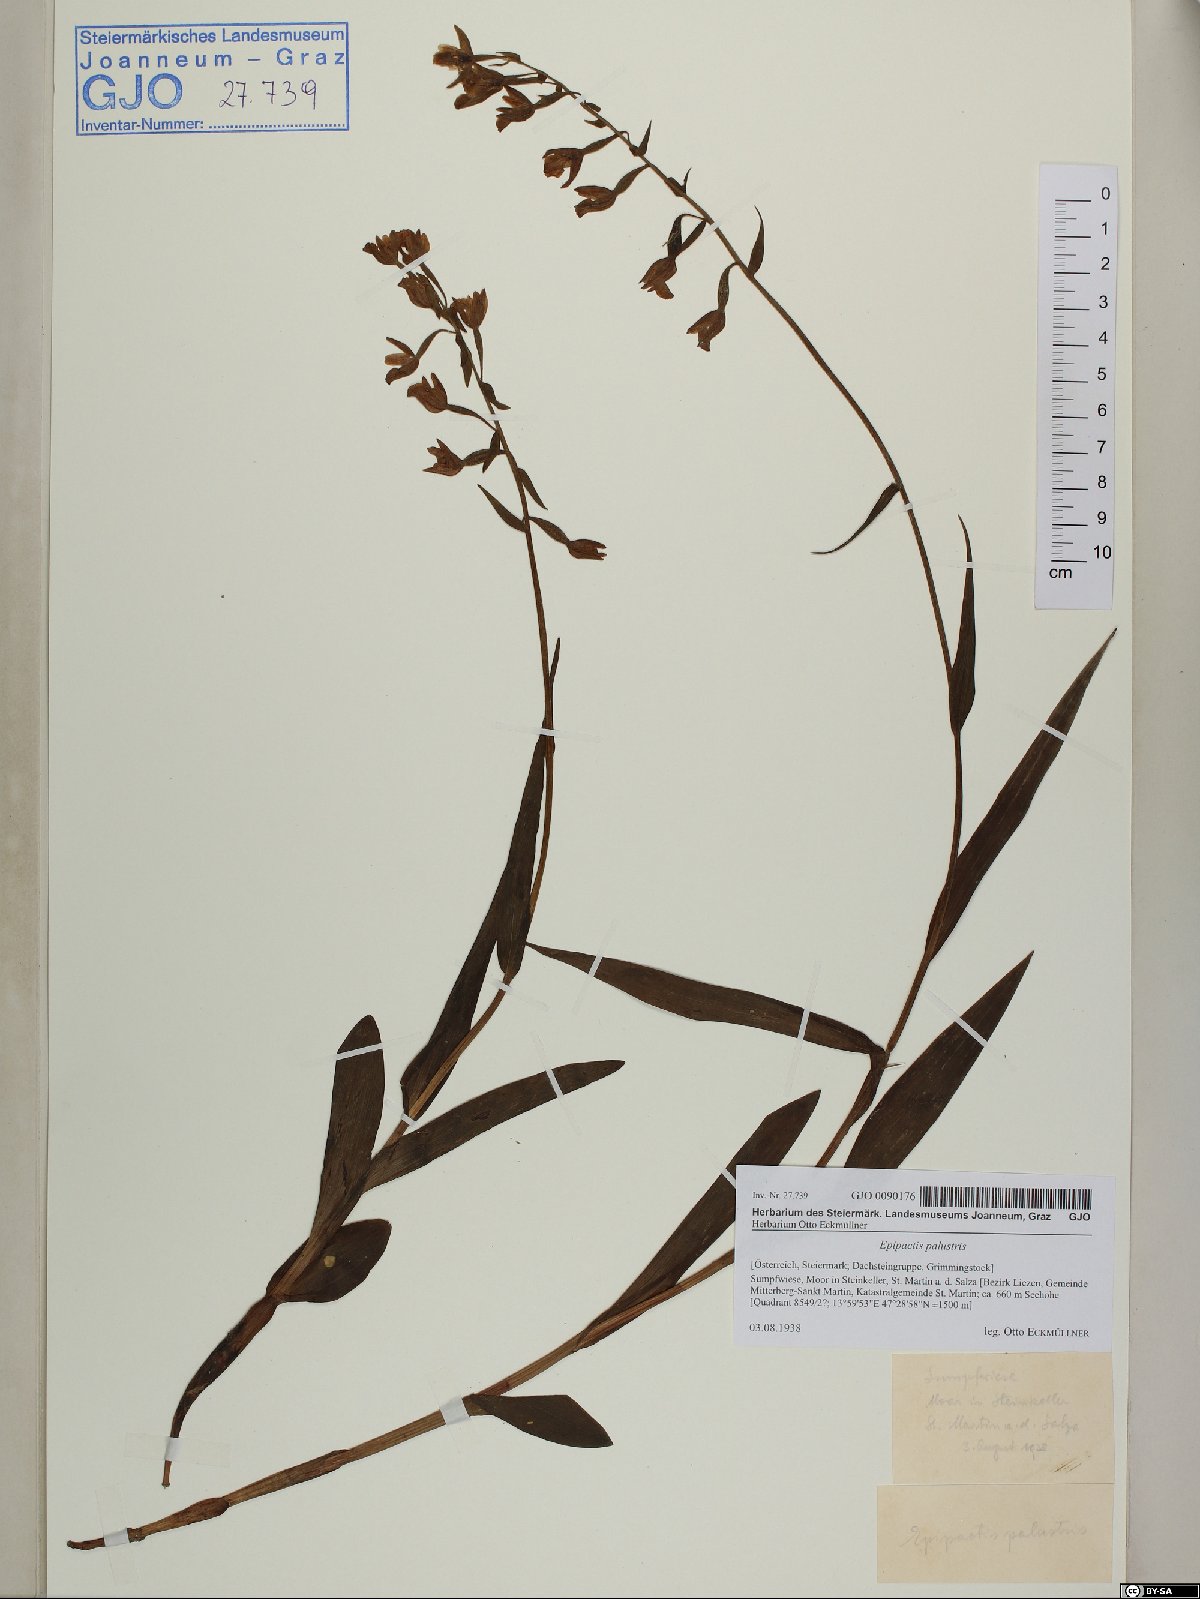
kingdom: Plantae
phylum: Tracheophyta
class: Liliopsida
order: Asparagales
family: Orchidaceae
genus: Epipactis
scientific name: Epipactis palustris
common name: Marsh helleborine
